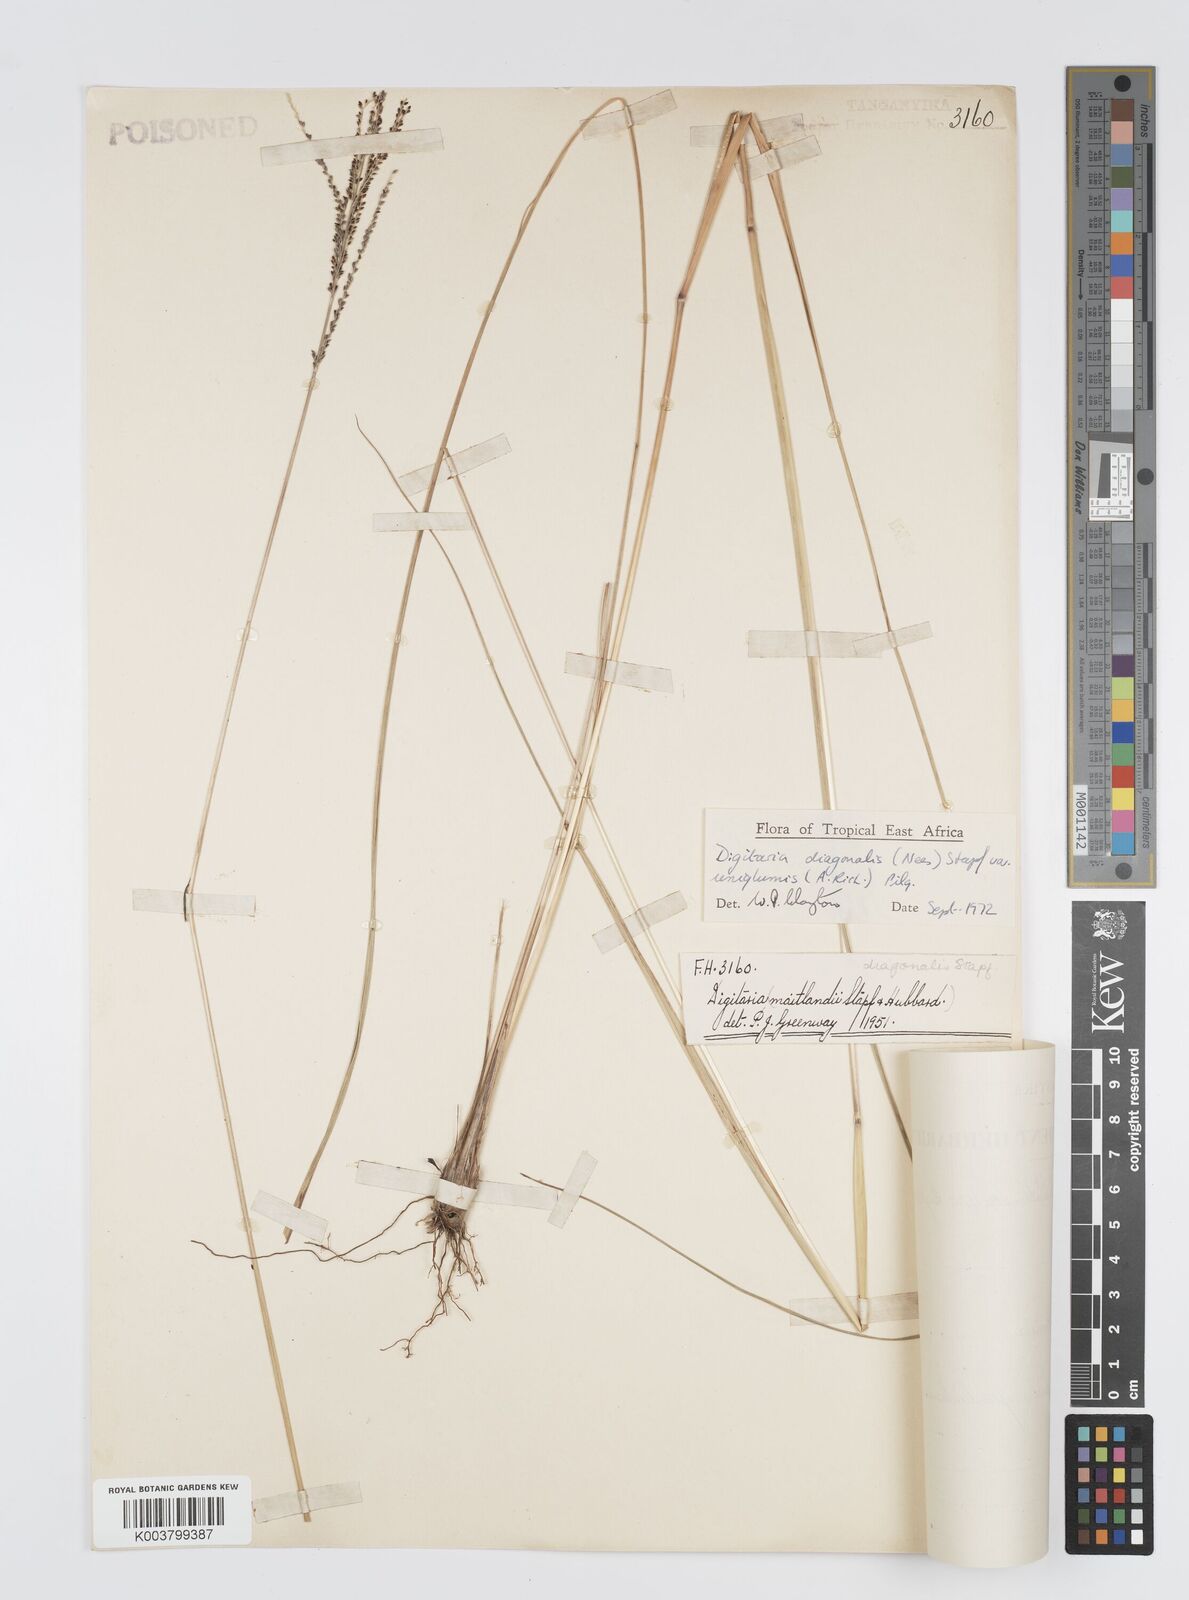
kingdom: Plantae
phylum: Tracheophyta
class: Liliopsida
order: Poales
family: Poaceae
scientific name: Poaceae
